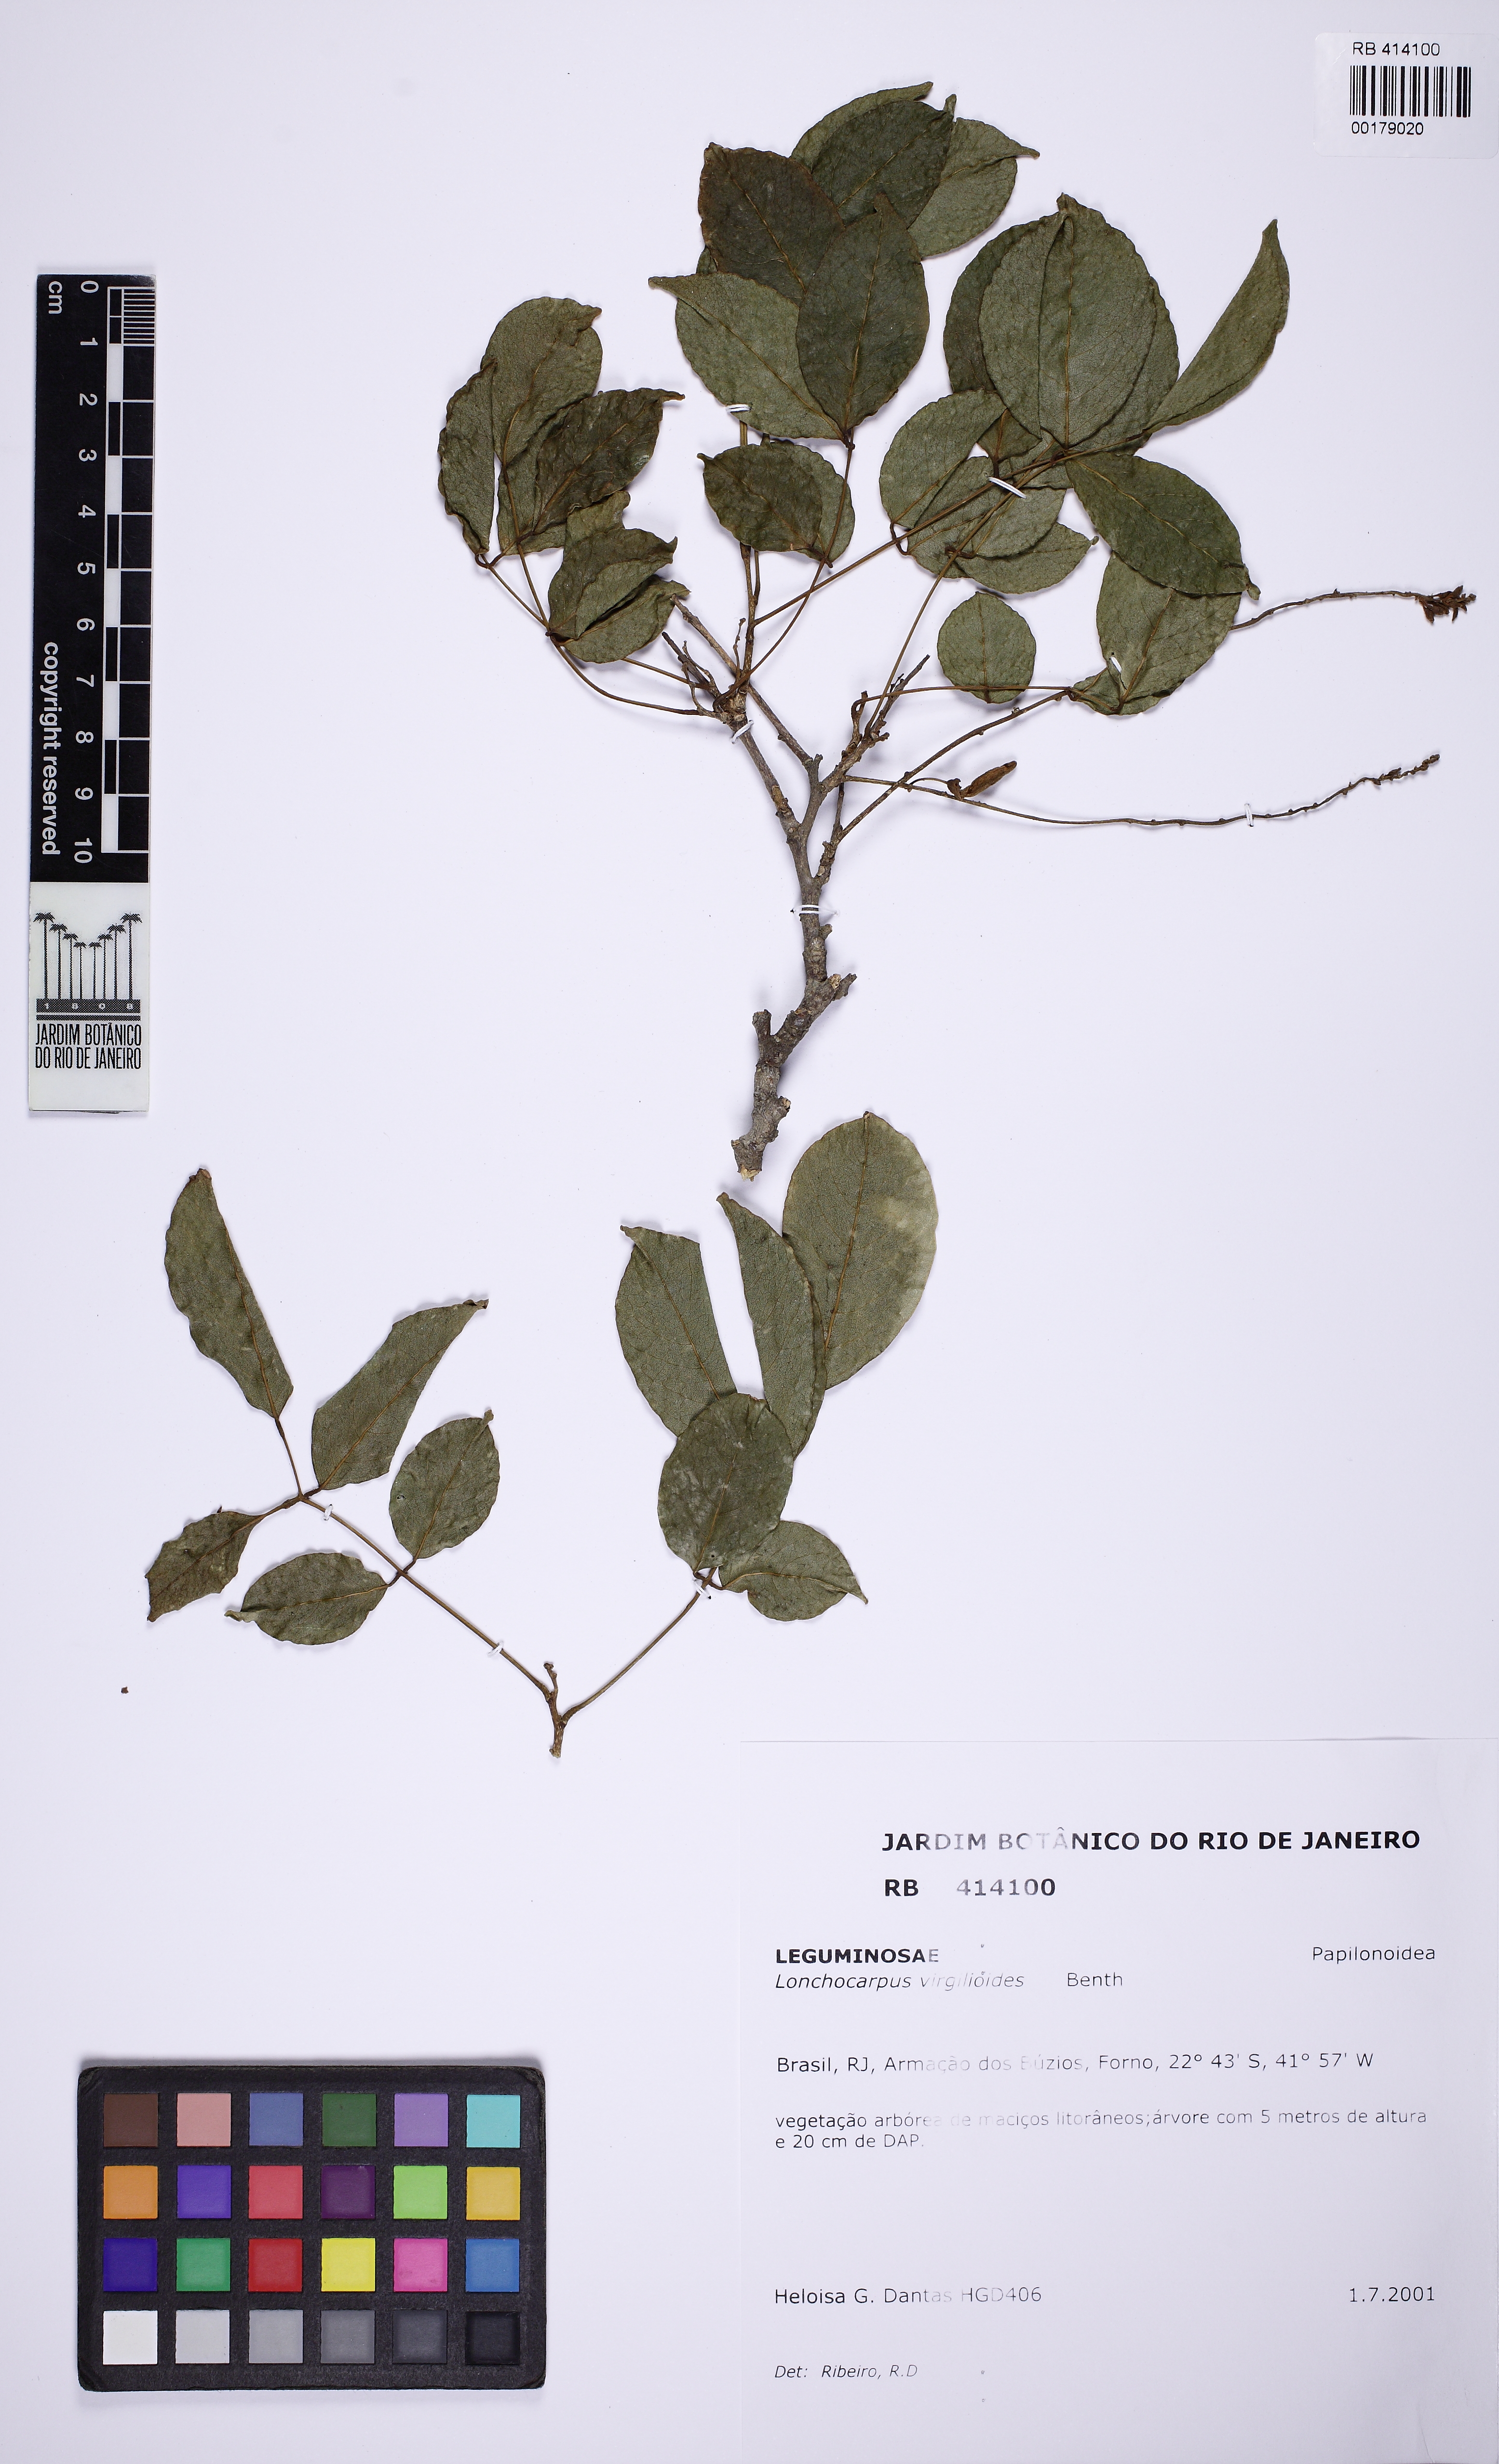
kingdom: Plantae
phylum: Tracheophyta
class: Magnoliopsida
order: Fabales
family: Fabaceae
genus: Muellera
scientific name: Muellera virgilioides
